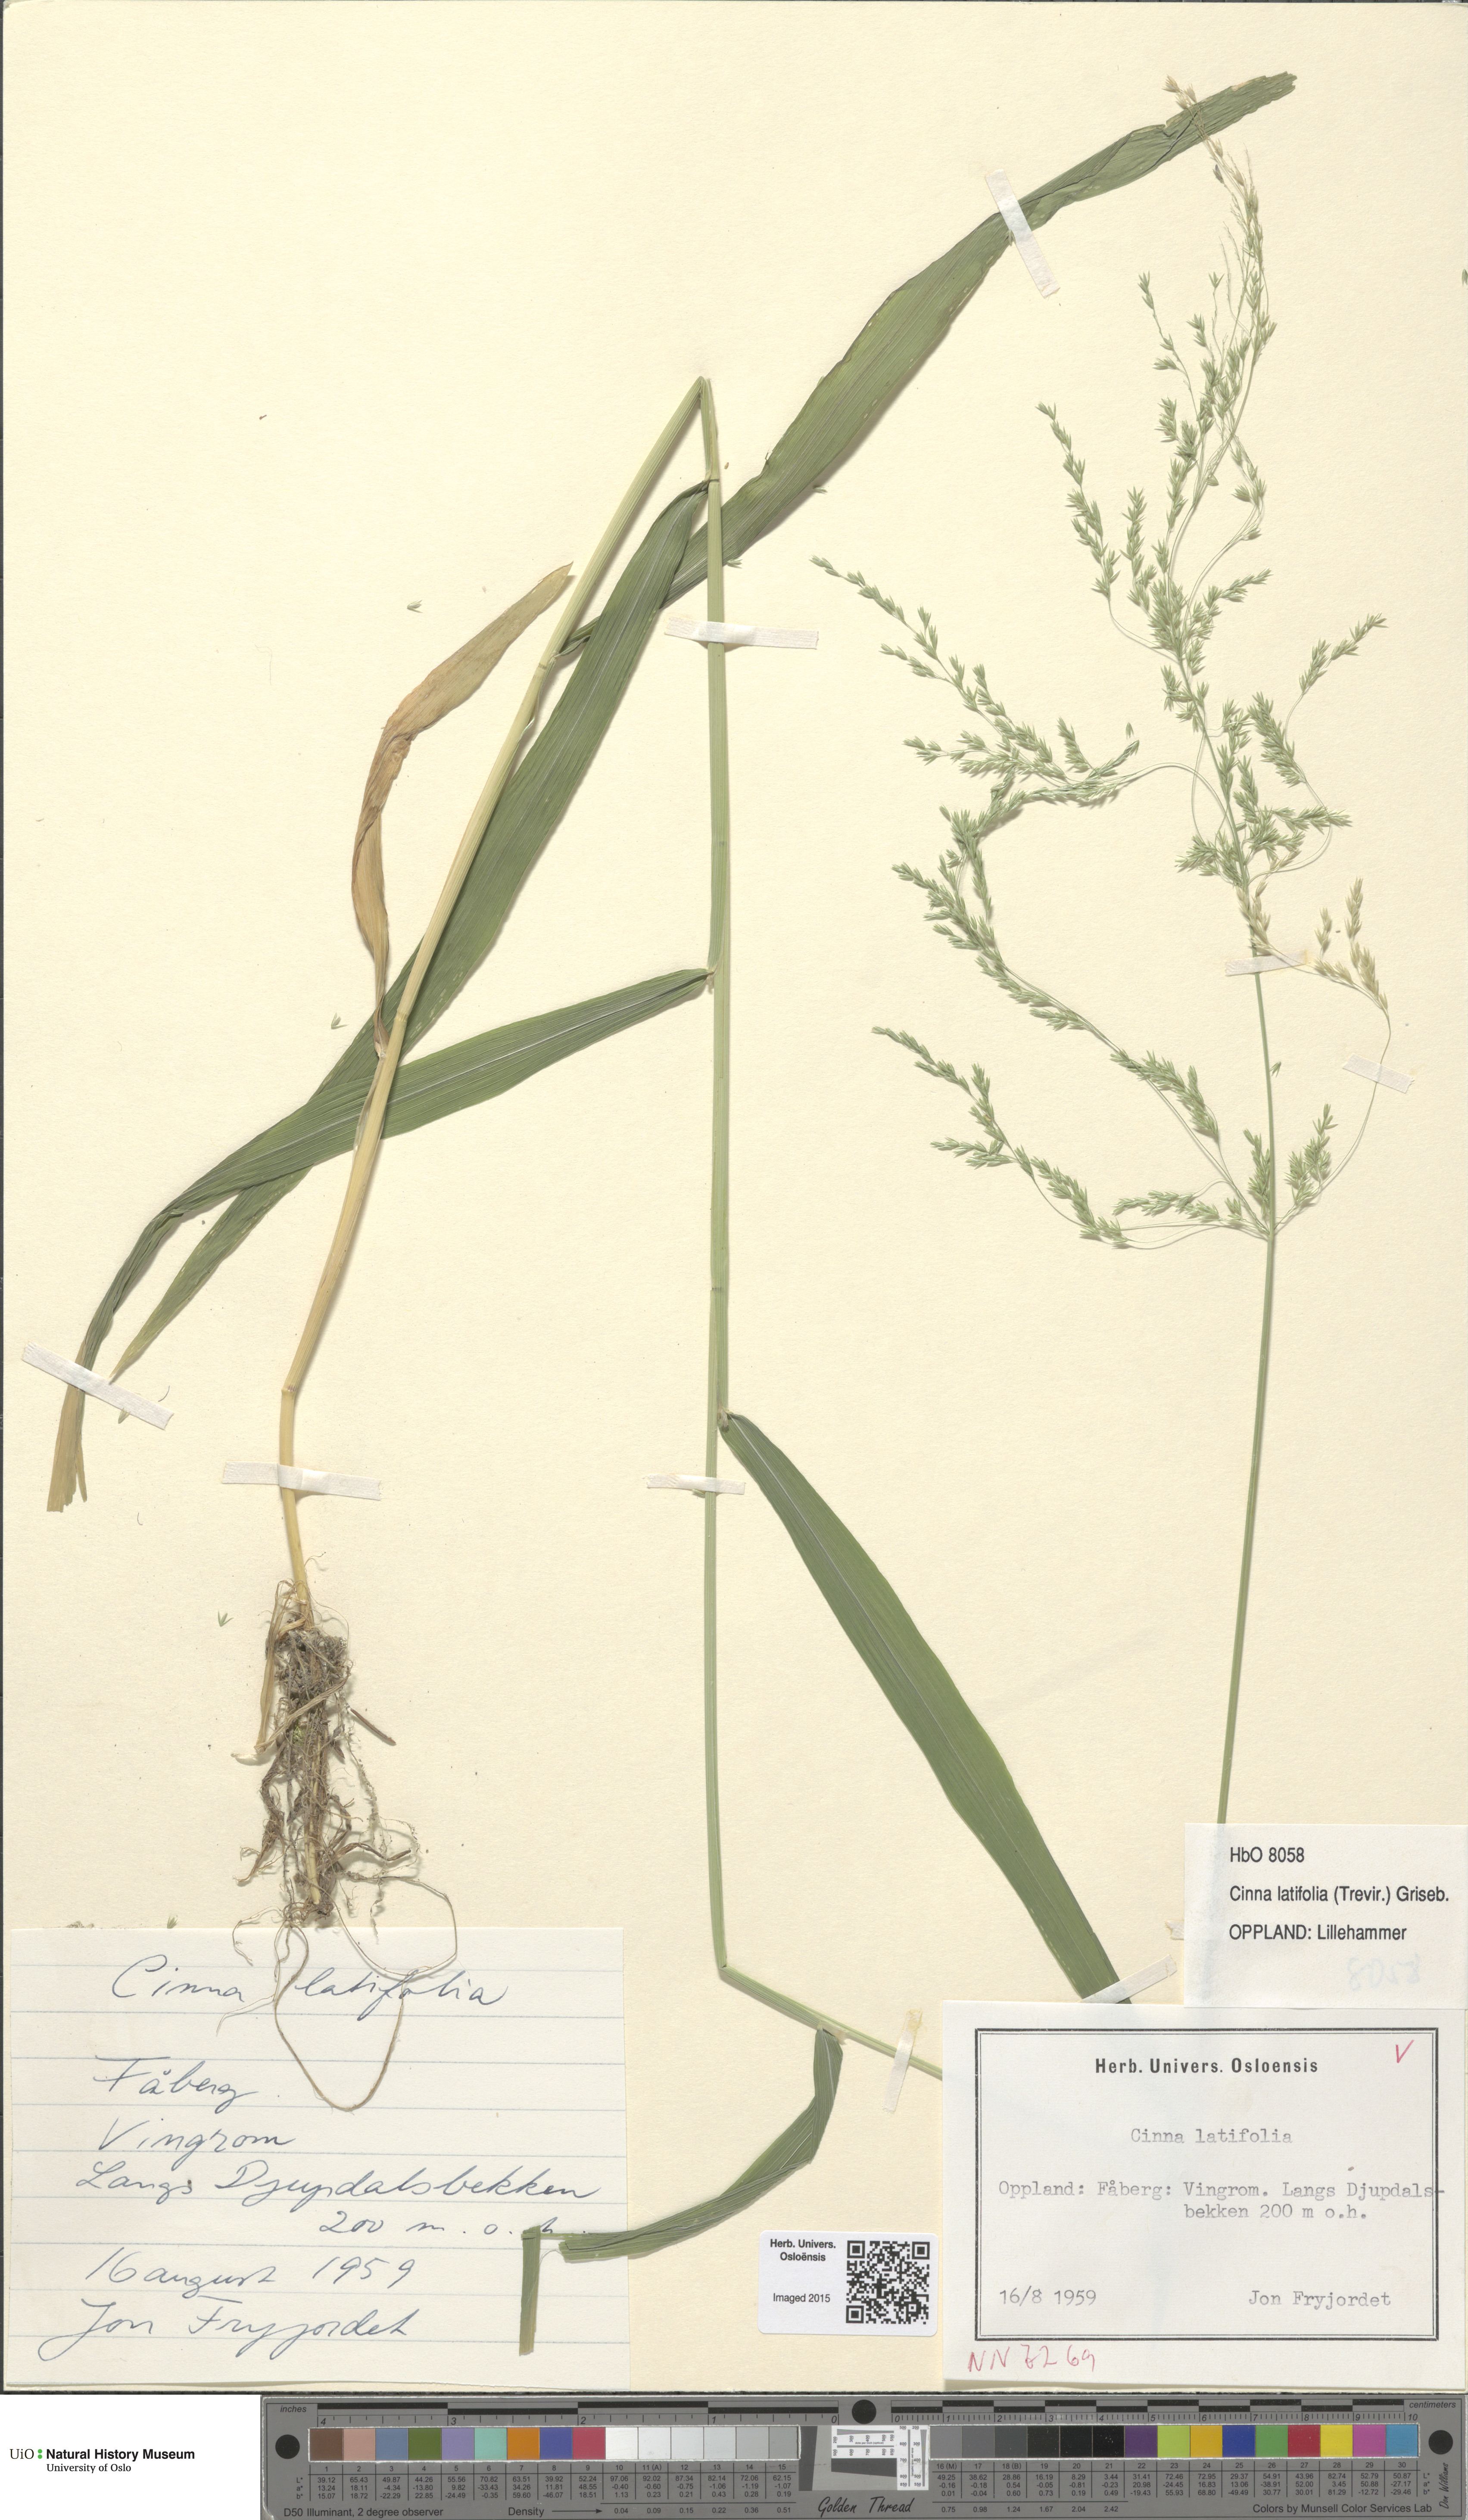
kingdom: Plantae
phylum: Tracheophyta
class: Liliopsida
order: Poales
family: Poaceae
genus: Cinna
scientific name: Cinna latifolia
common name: Drooping woodreed
